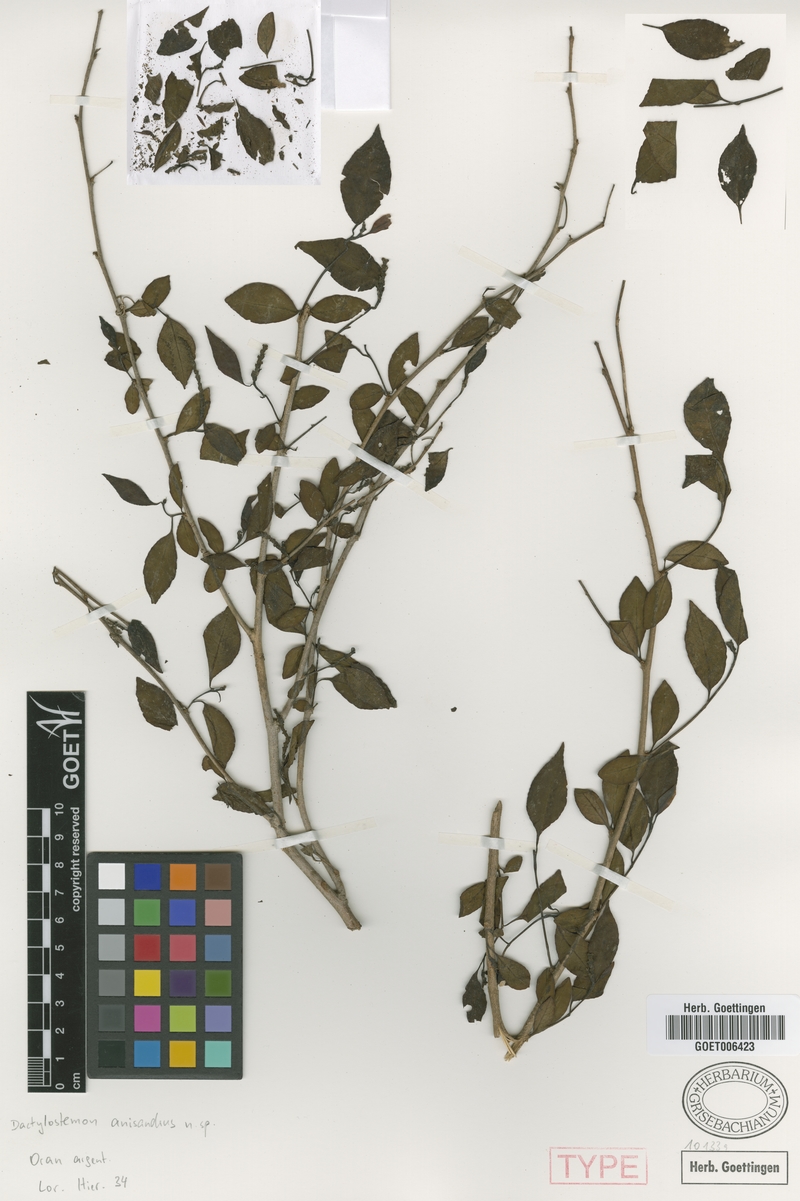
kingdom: Plantae
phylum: Tracheophyta
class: Magnoliopsida
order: Malpighiales
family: Euphorbiaceae
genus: Sebastiania
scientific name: Sebastiania ramosissima
